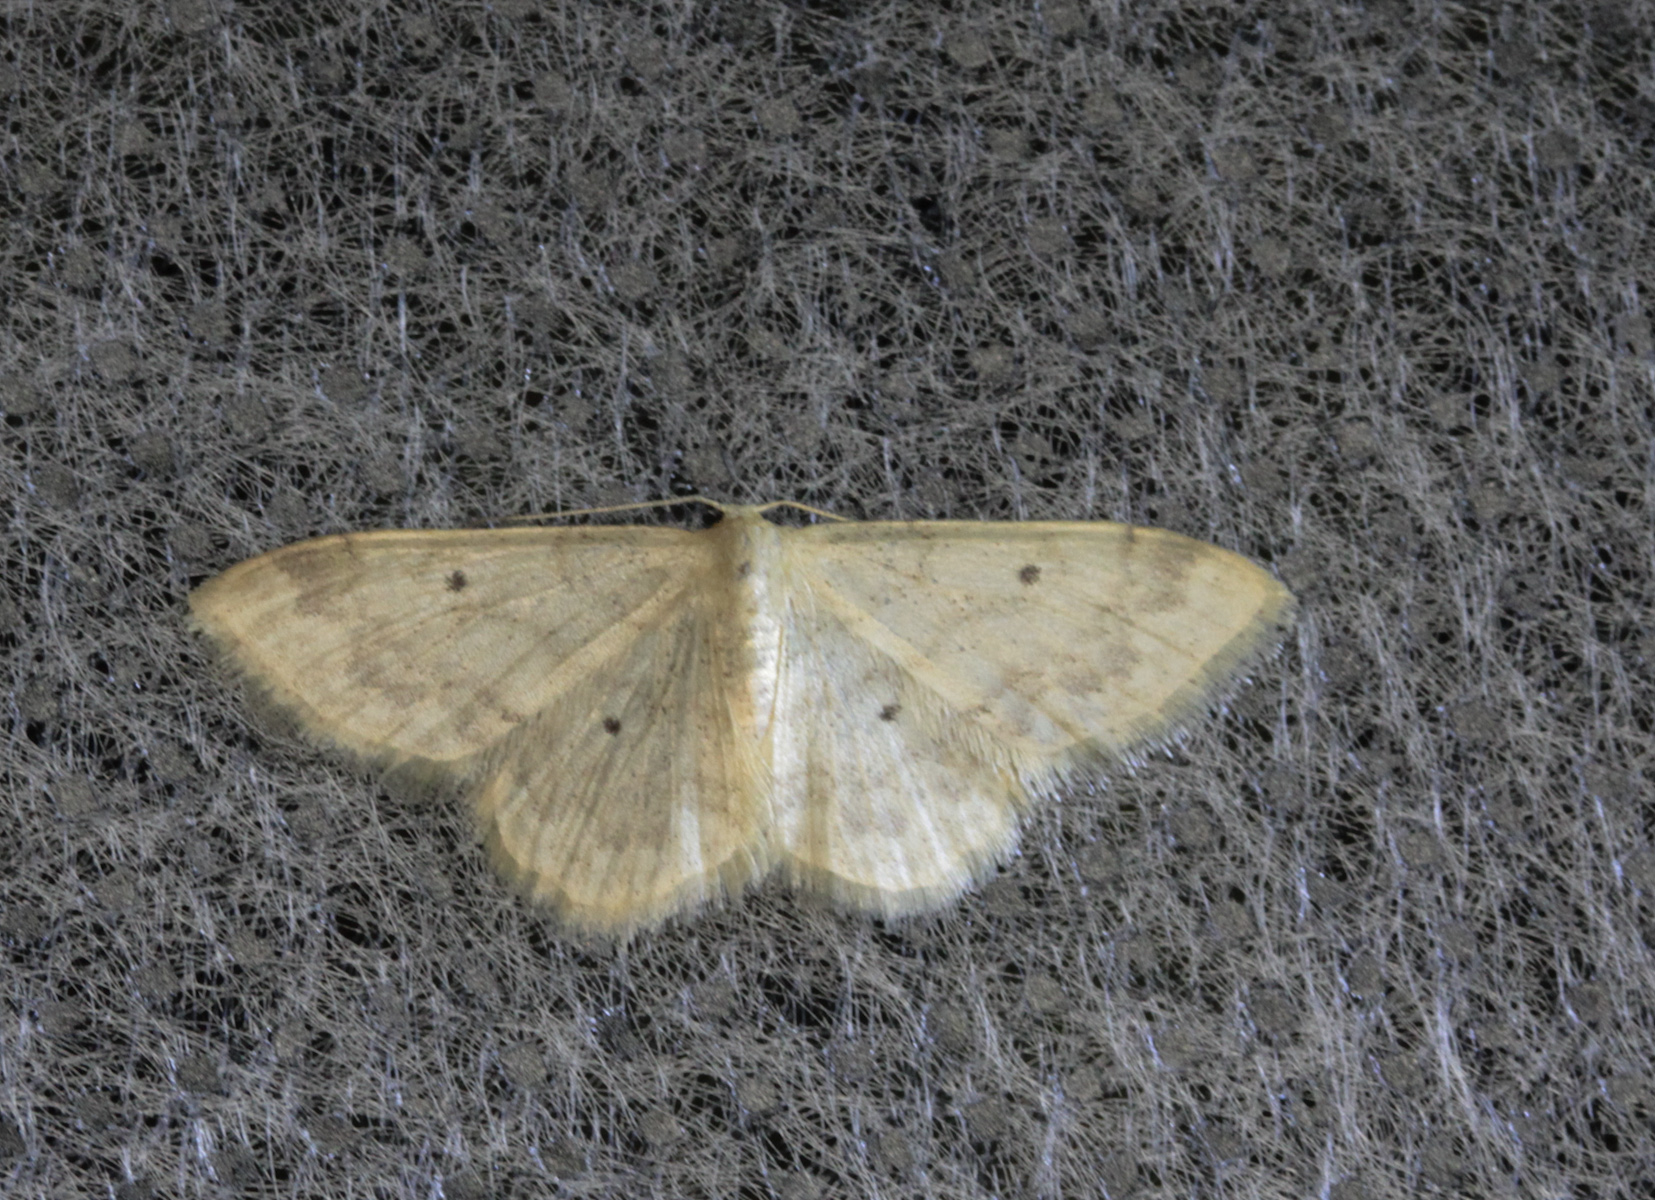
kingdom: Animalia
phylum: Arthropoda
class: Insecta
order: Lepidoptera
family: Geometridae
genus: Idaea
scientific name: Idaea biselata
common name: Small fan-footed wave
